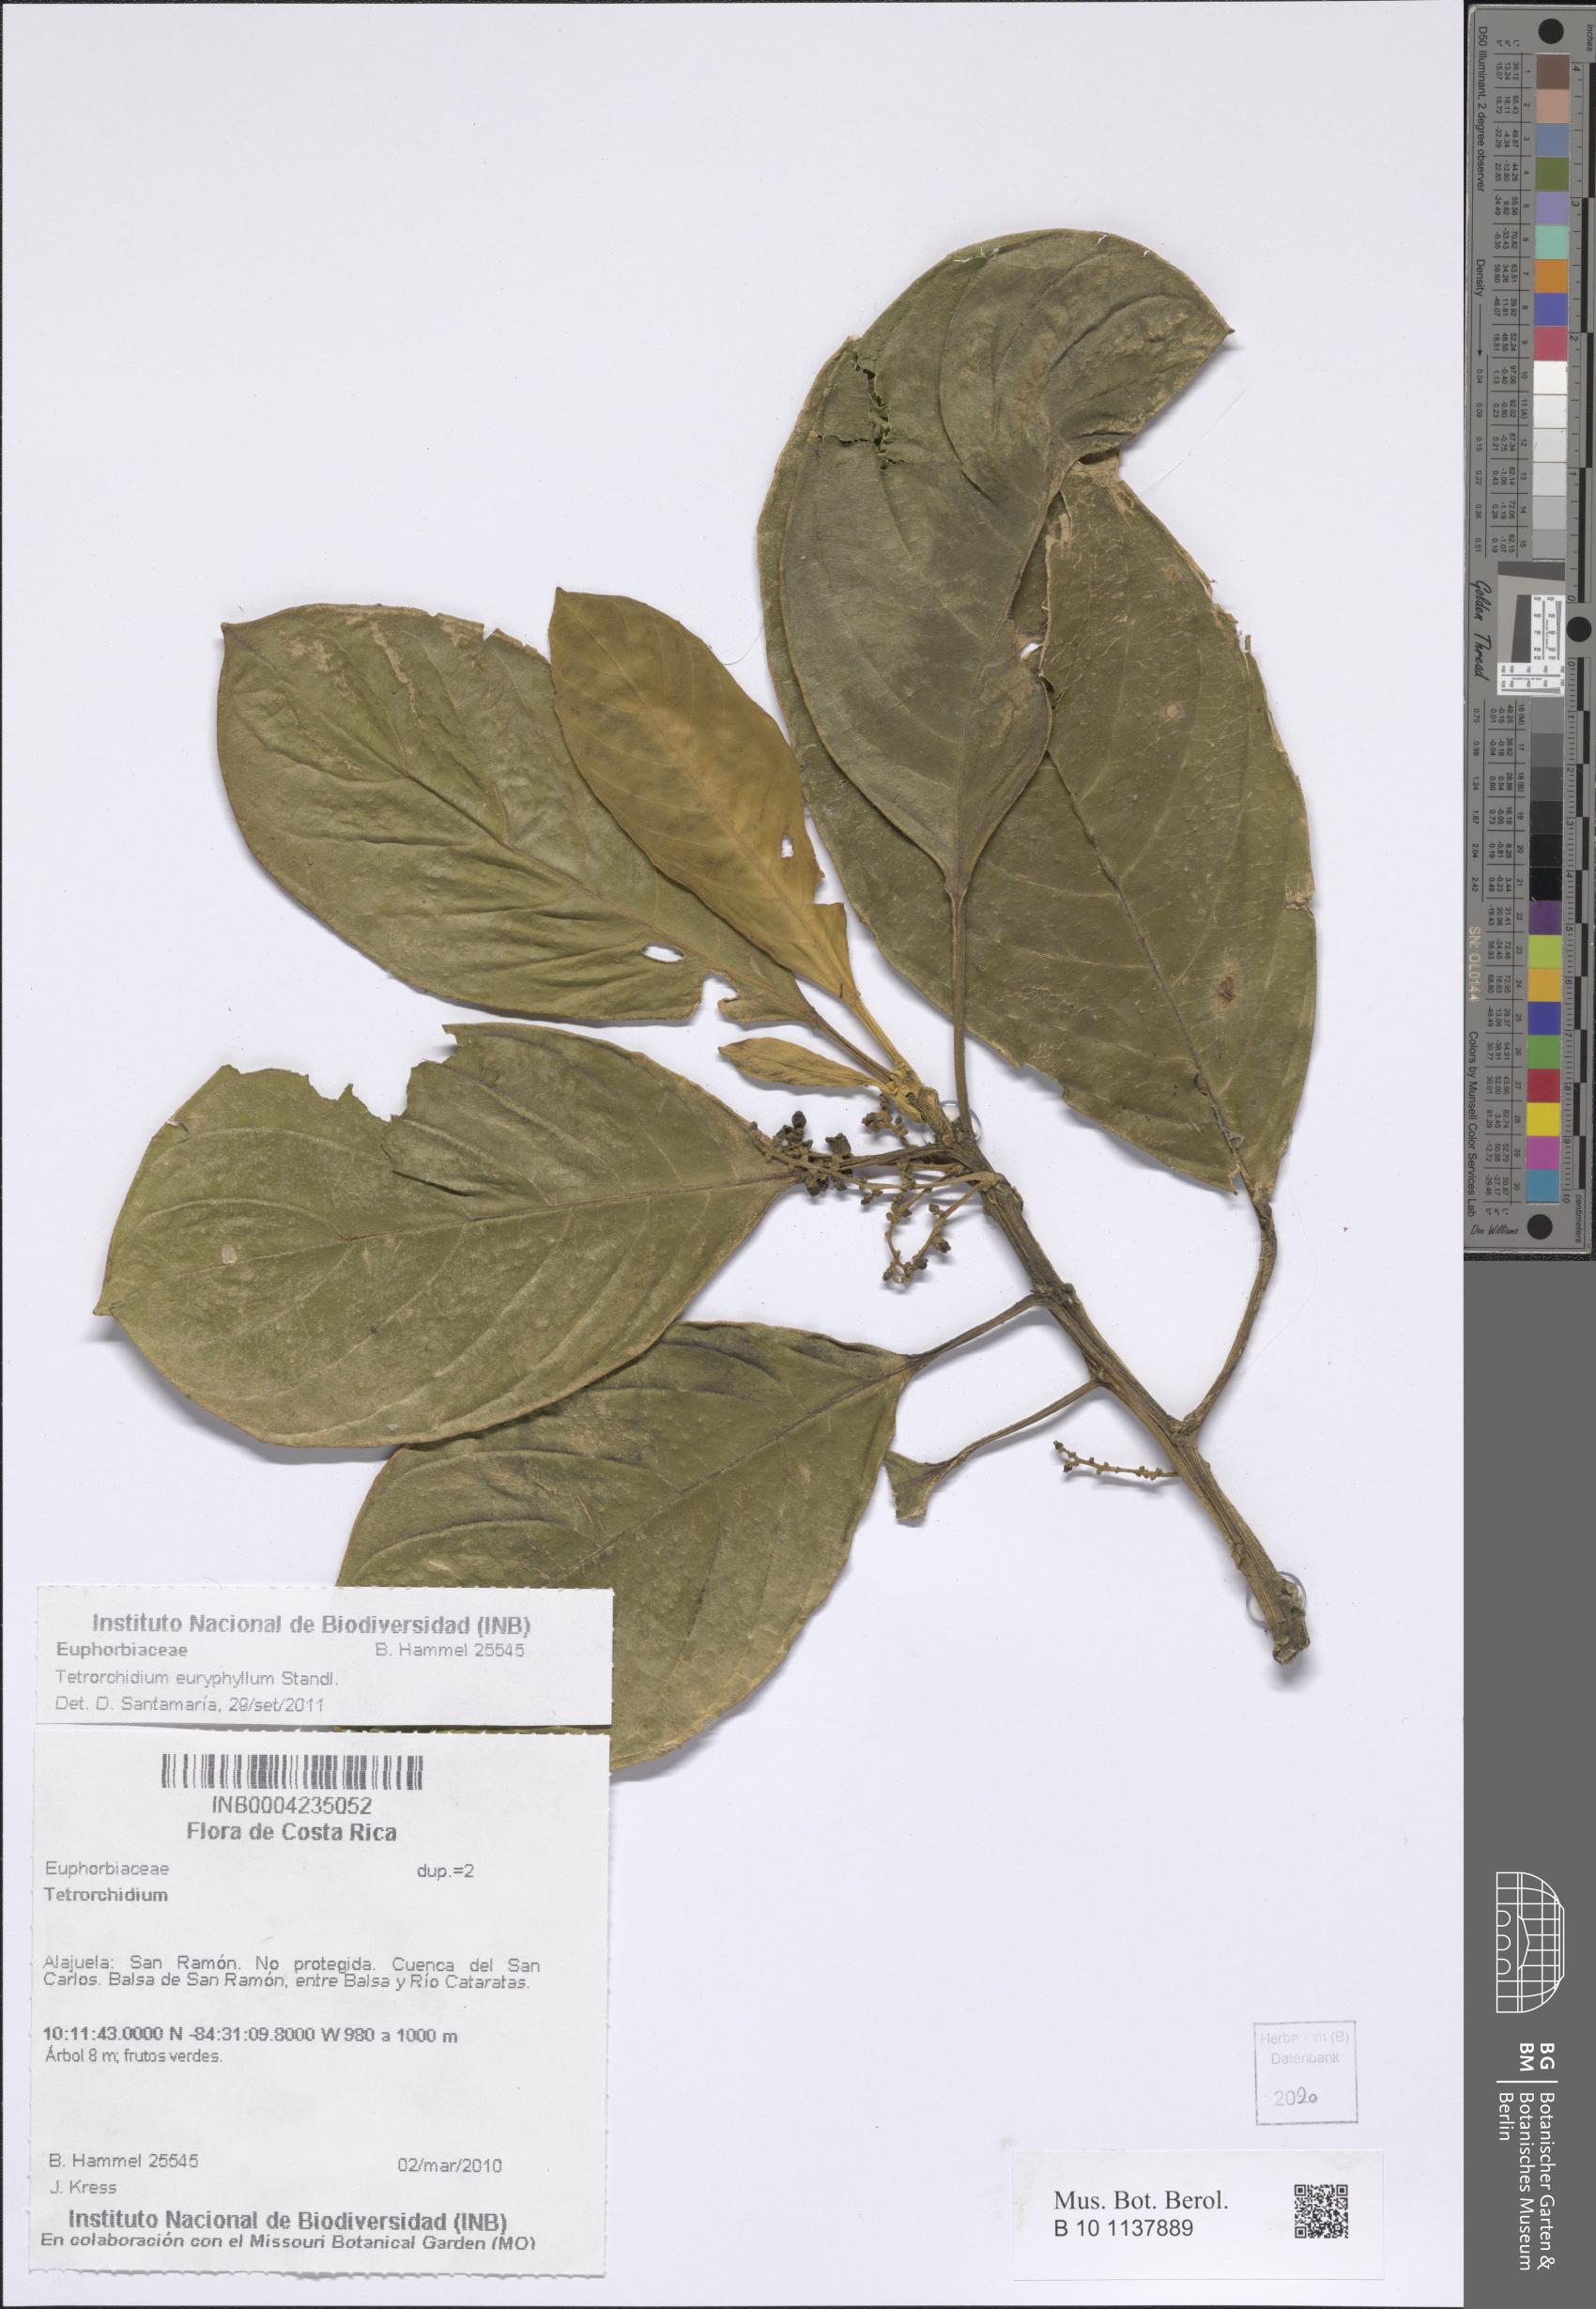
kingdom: Plantae
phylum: Tracheophyta
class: Magnoliopsida
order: Malpighiales
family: Euphorbiaceae
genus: Tetrorchidium
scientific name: Tetrorchidium euryphyllum
